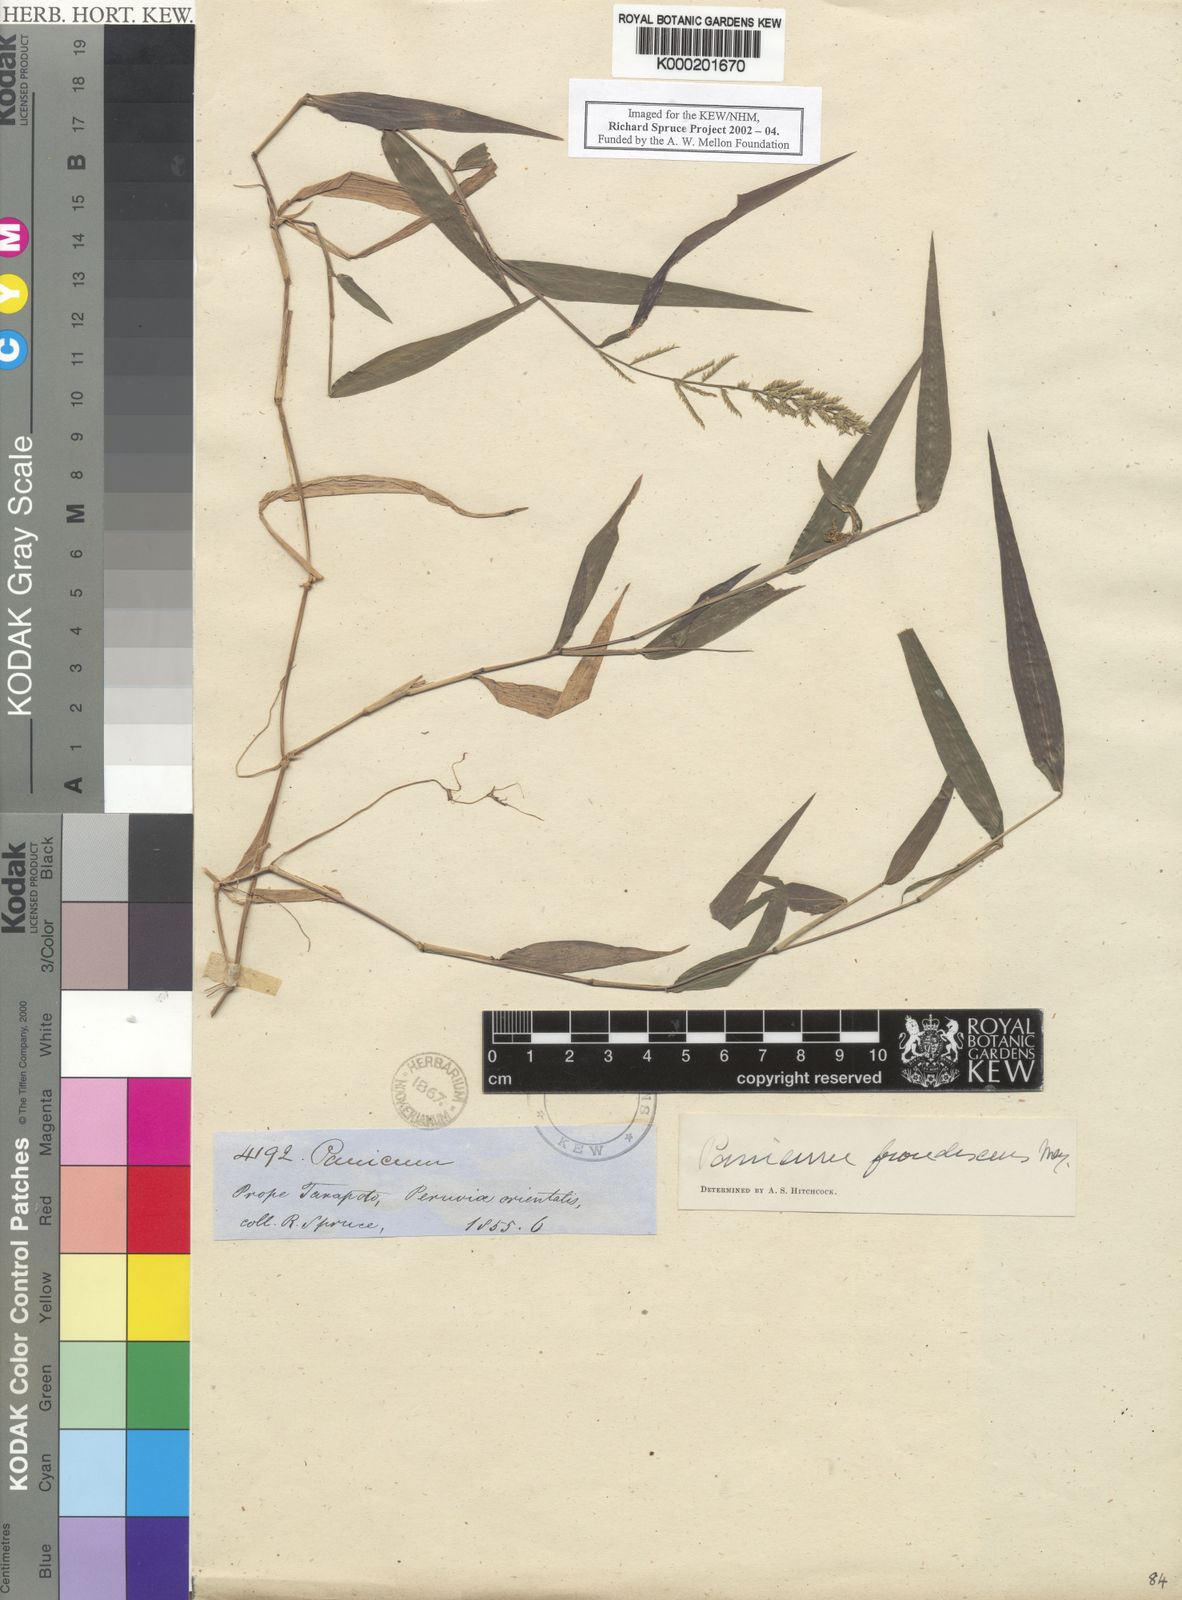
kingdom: Plantae
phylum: Tracheophyta
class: Liliopsida
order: Poales
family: Poaceae
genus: Ocellochloa
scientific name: Ocellochloa stolonifera
